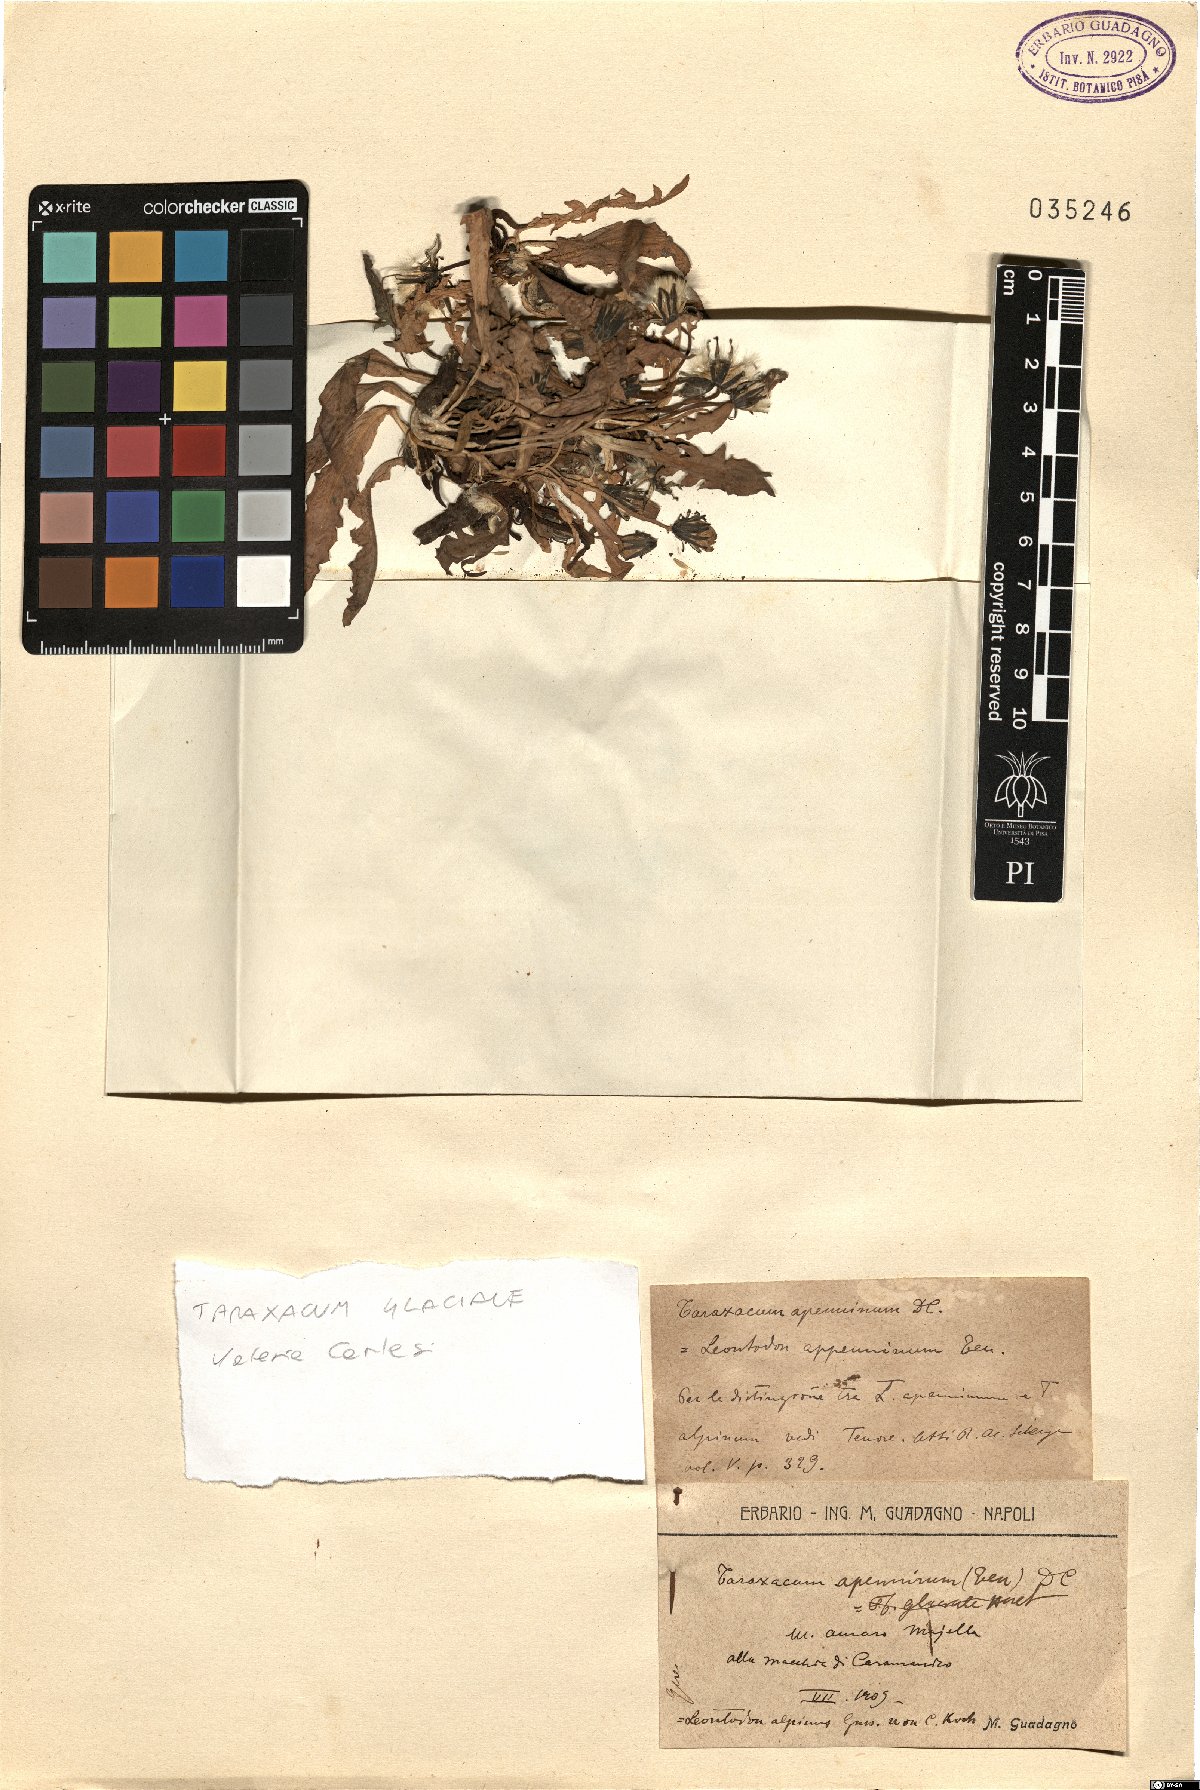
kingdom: Plantae
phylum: Tracheophyta
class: Magnoliopsida
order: Asterales
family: Asteraceae
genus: Taraxacum
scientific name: Taraxacum glaciale
